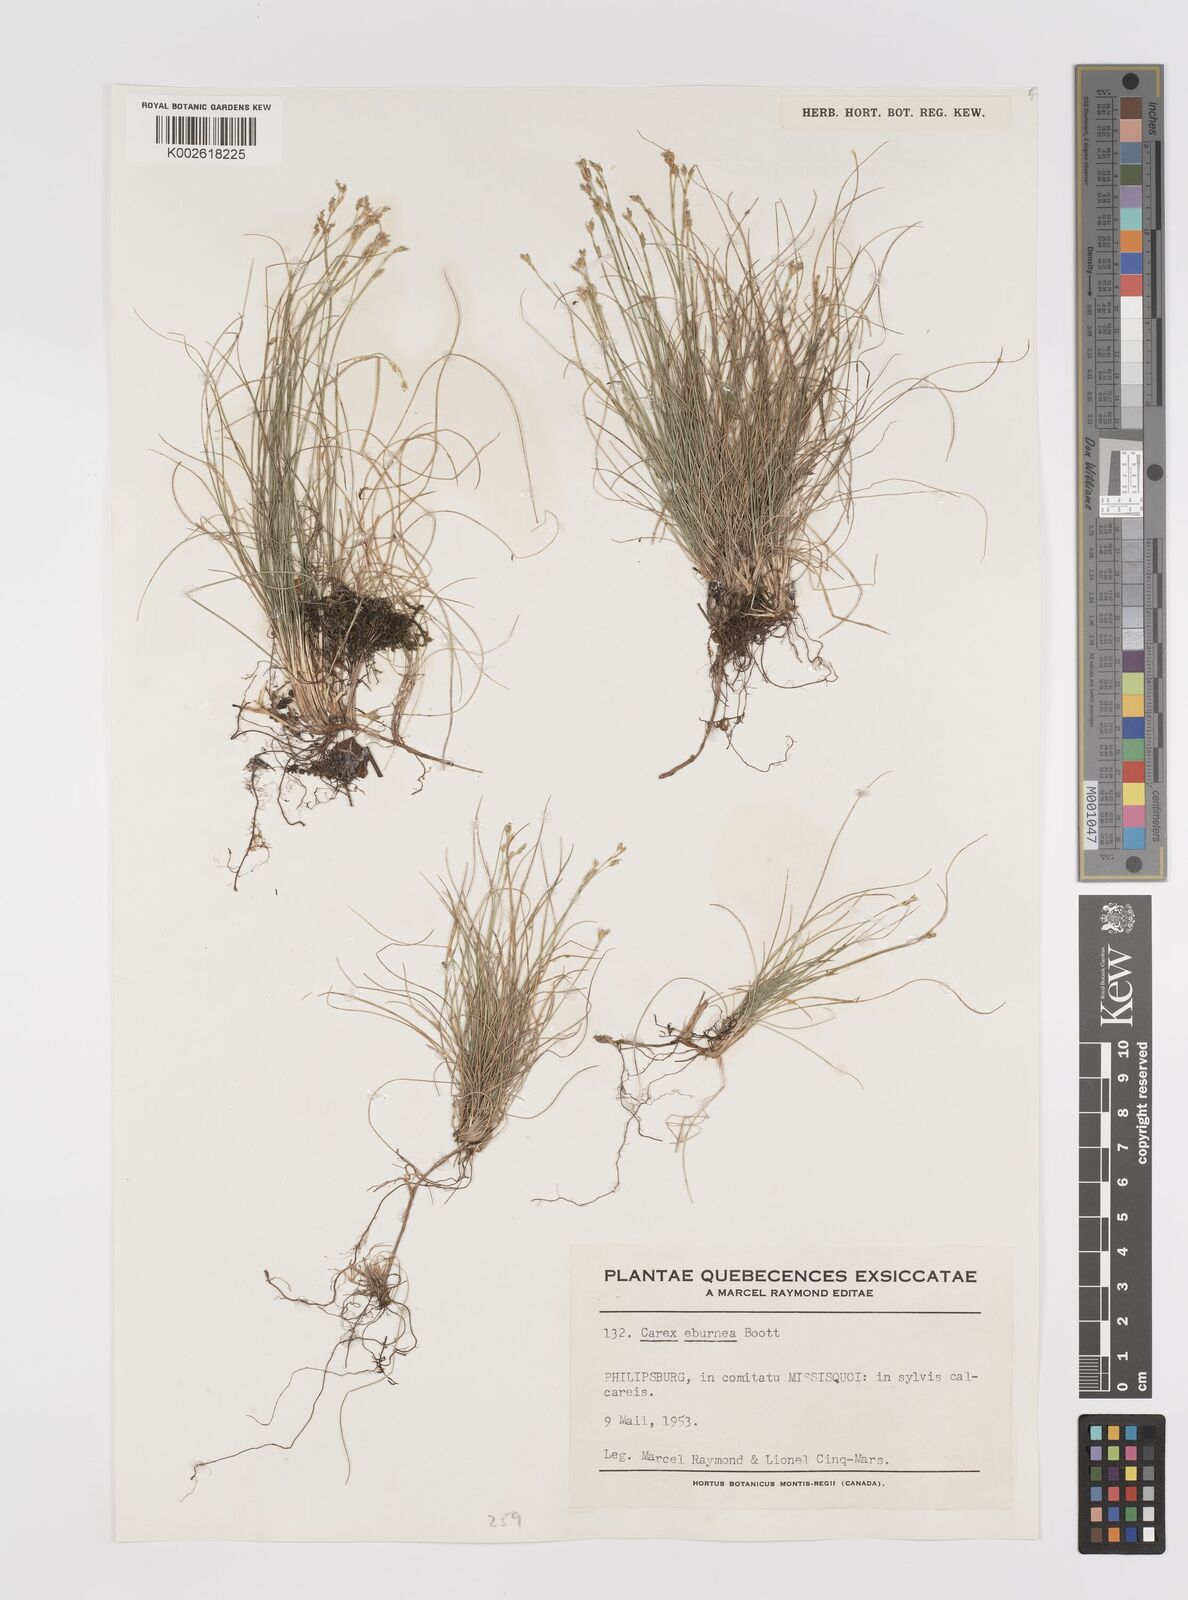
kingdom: Plantae
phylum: Tracheophyta
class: Liliopsida
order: Poales
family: Cyperaceae
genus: Carex
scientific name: Carex eburnea
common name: Bristle-leaved sedge
